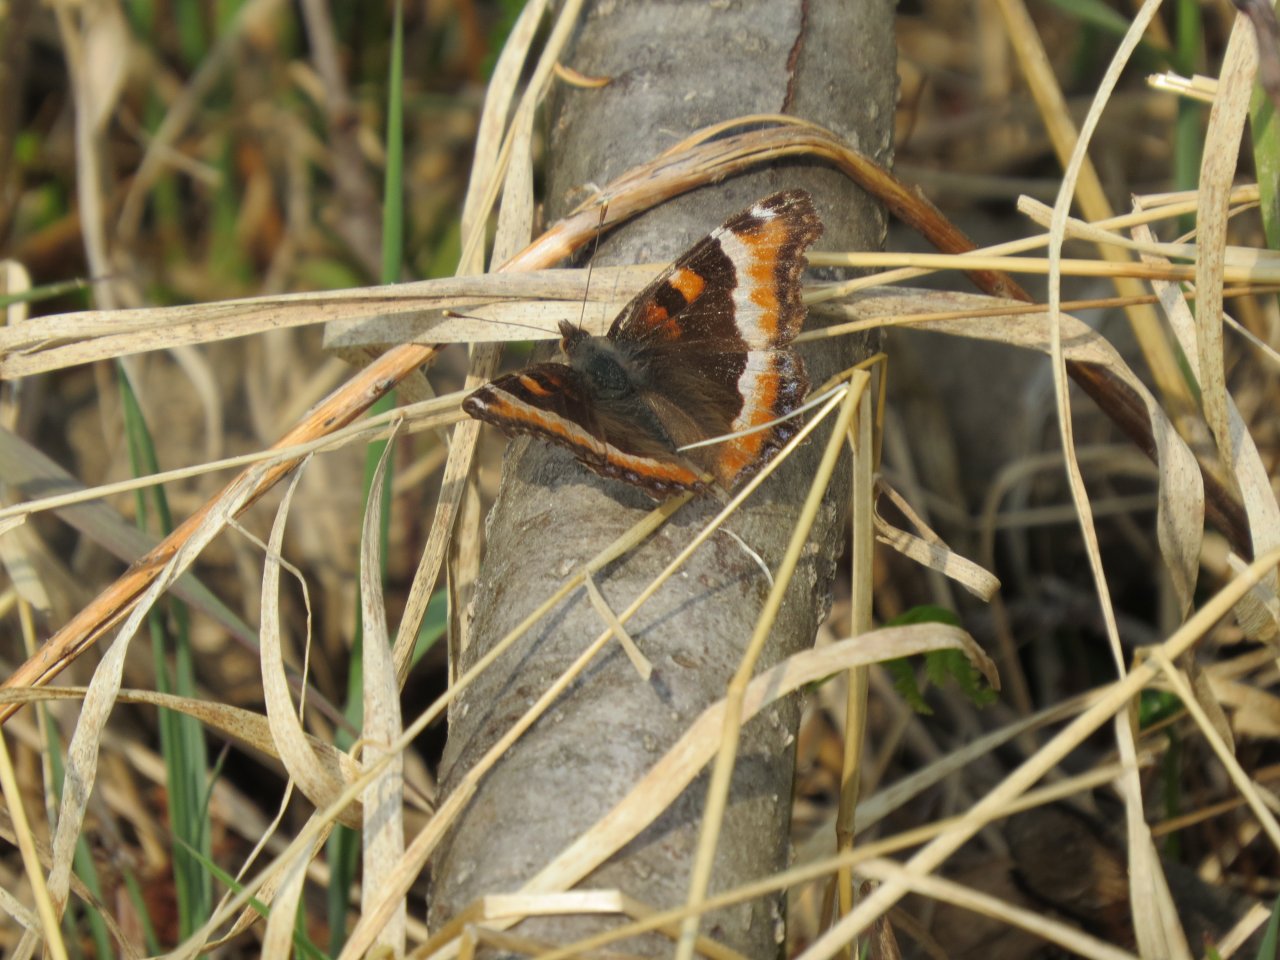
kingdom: Animalia
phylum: Arthropoda
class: Insecta
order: Lepidoptera
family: Nymphalidae
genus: Aglais
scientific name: Aglais milberti
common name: Milbert's Tortoiseshell
